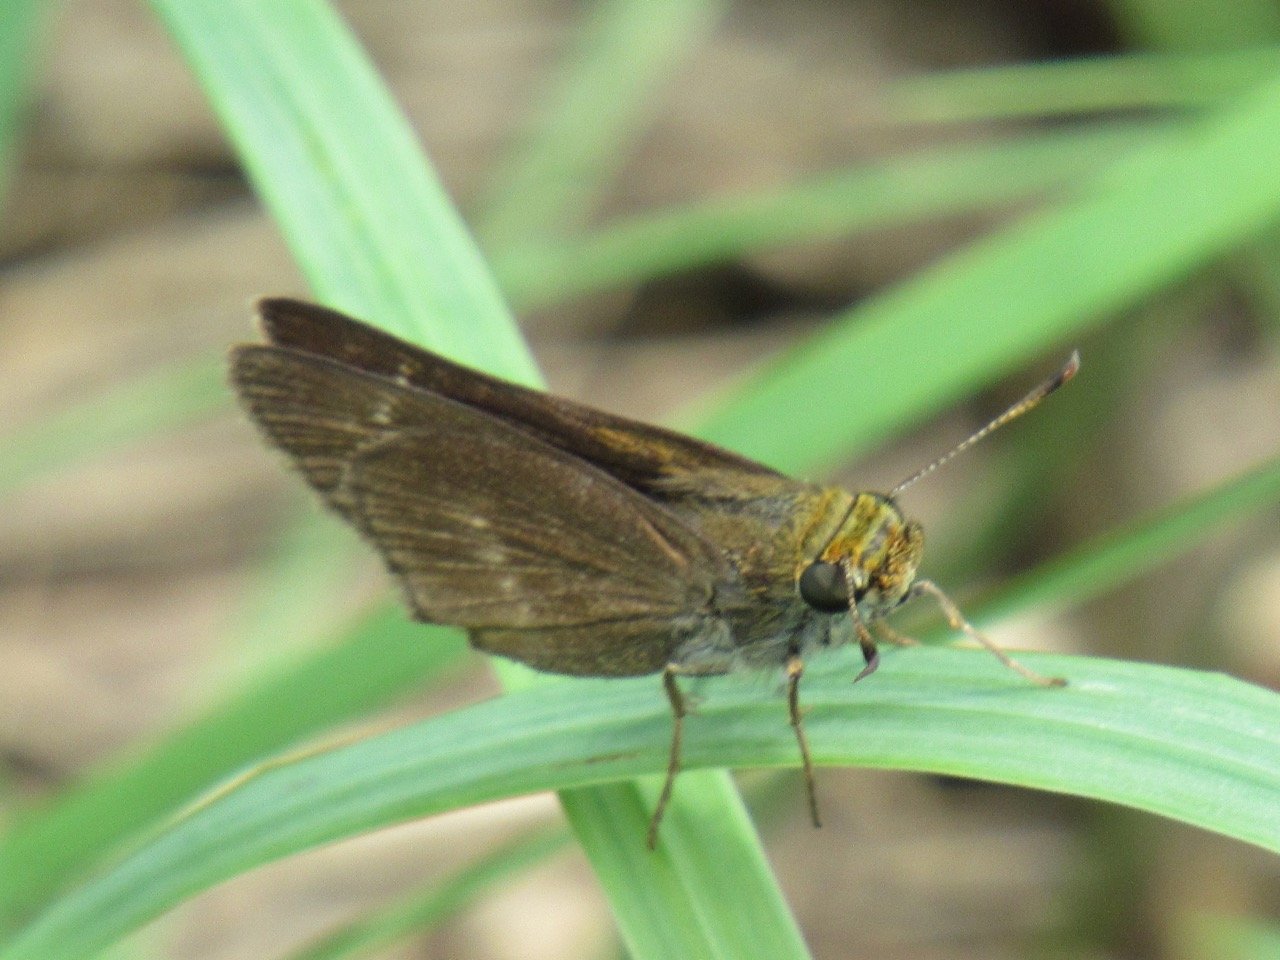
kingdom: Animalia
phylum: Arthropoda
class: Insecta
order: Lepidoptera
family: Hesperiidae
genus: Polites
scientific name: Polites egeremet
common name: Northern Broken-Dash
